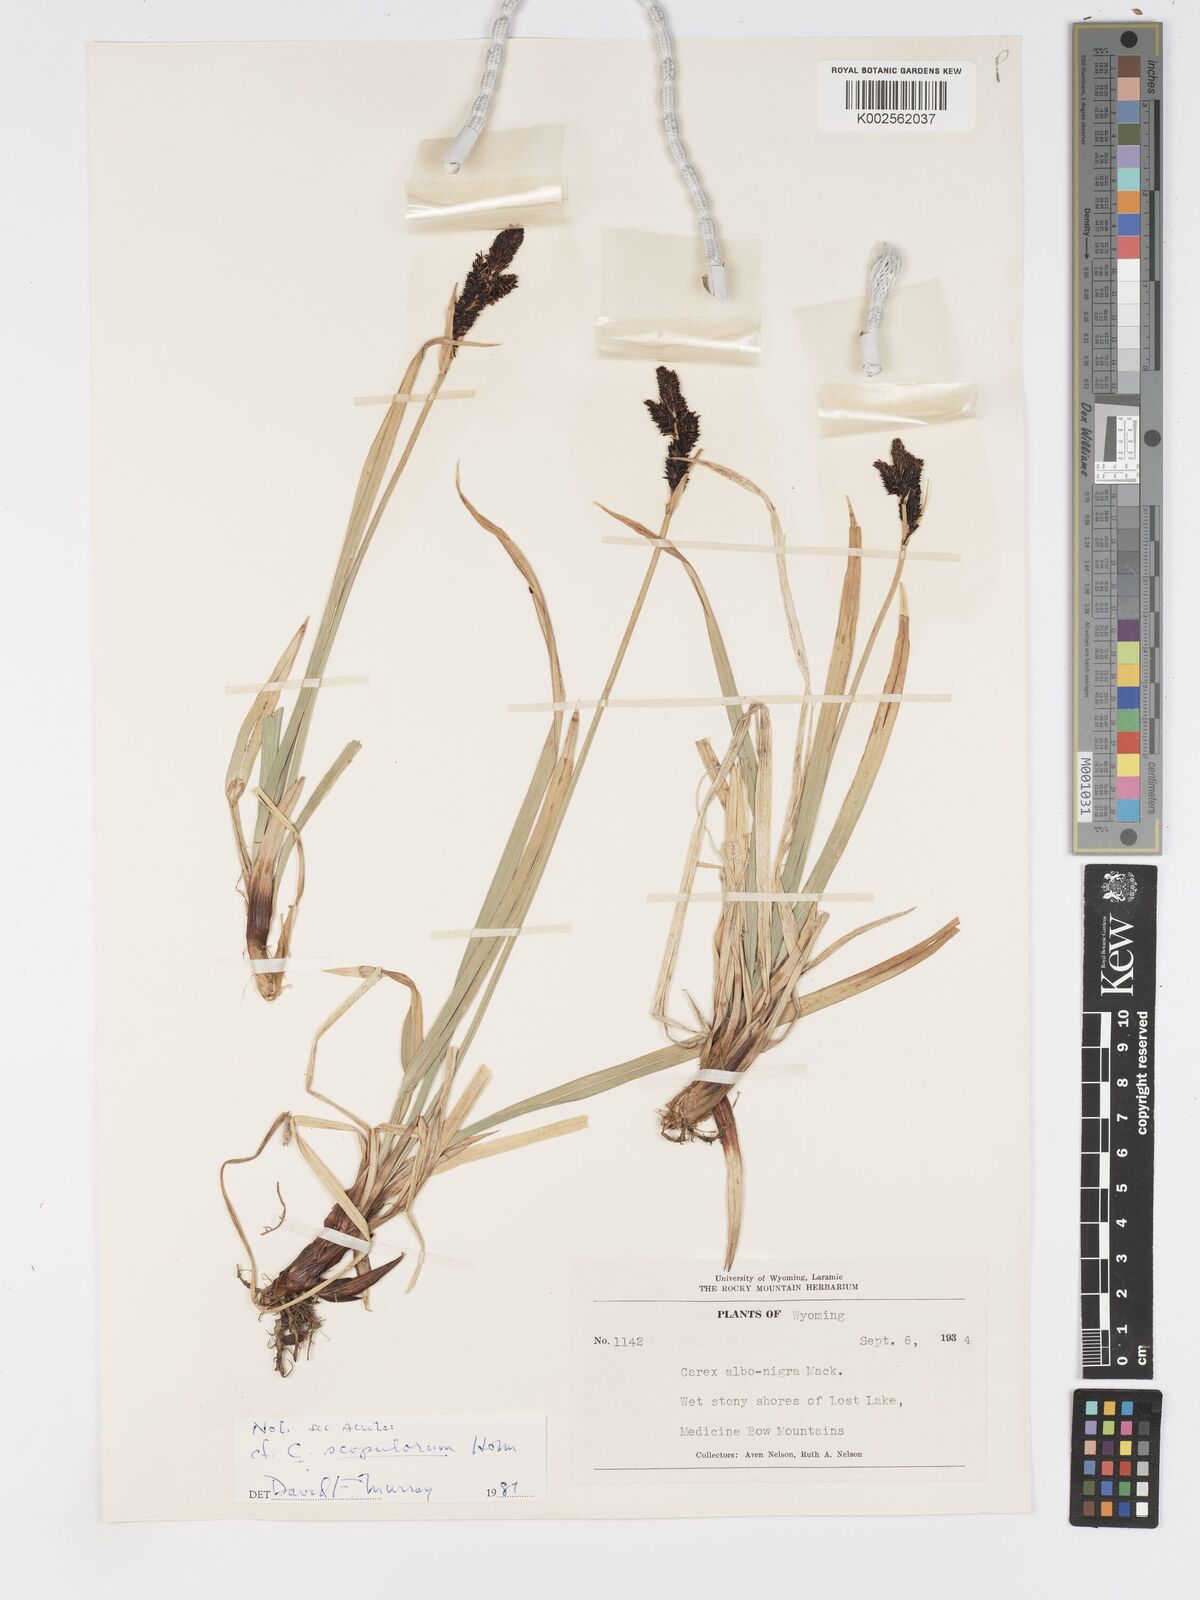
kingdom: Plantae
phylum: Tracheophyta
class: Liliopsida
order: Poales
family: Cyperaceae
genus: Carex
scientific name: Carex scopulorum
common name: Holm's rocky mountain sedge
